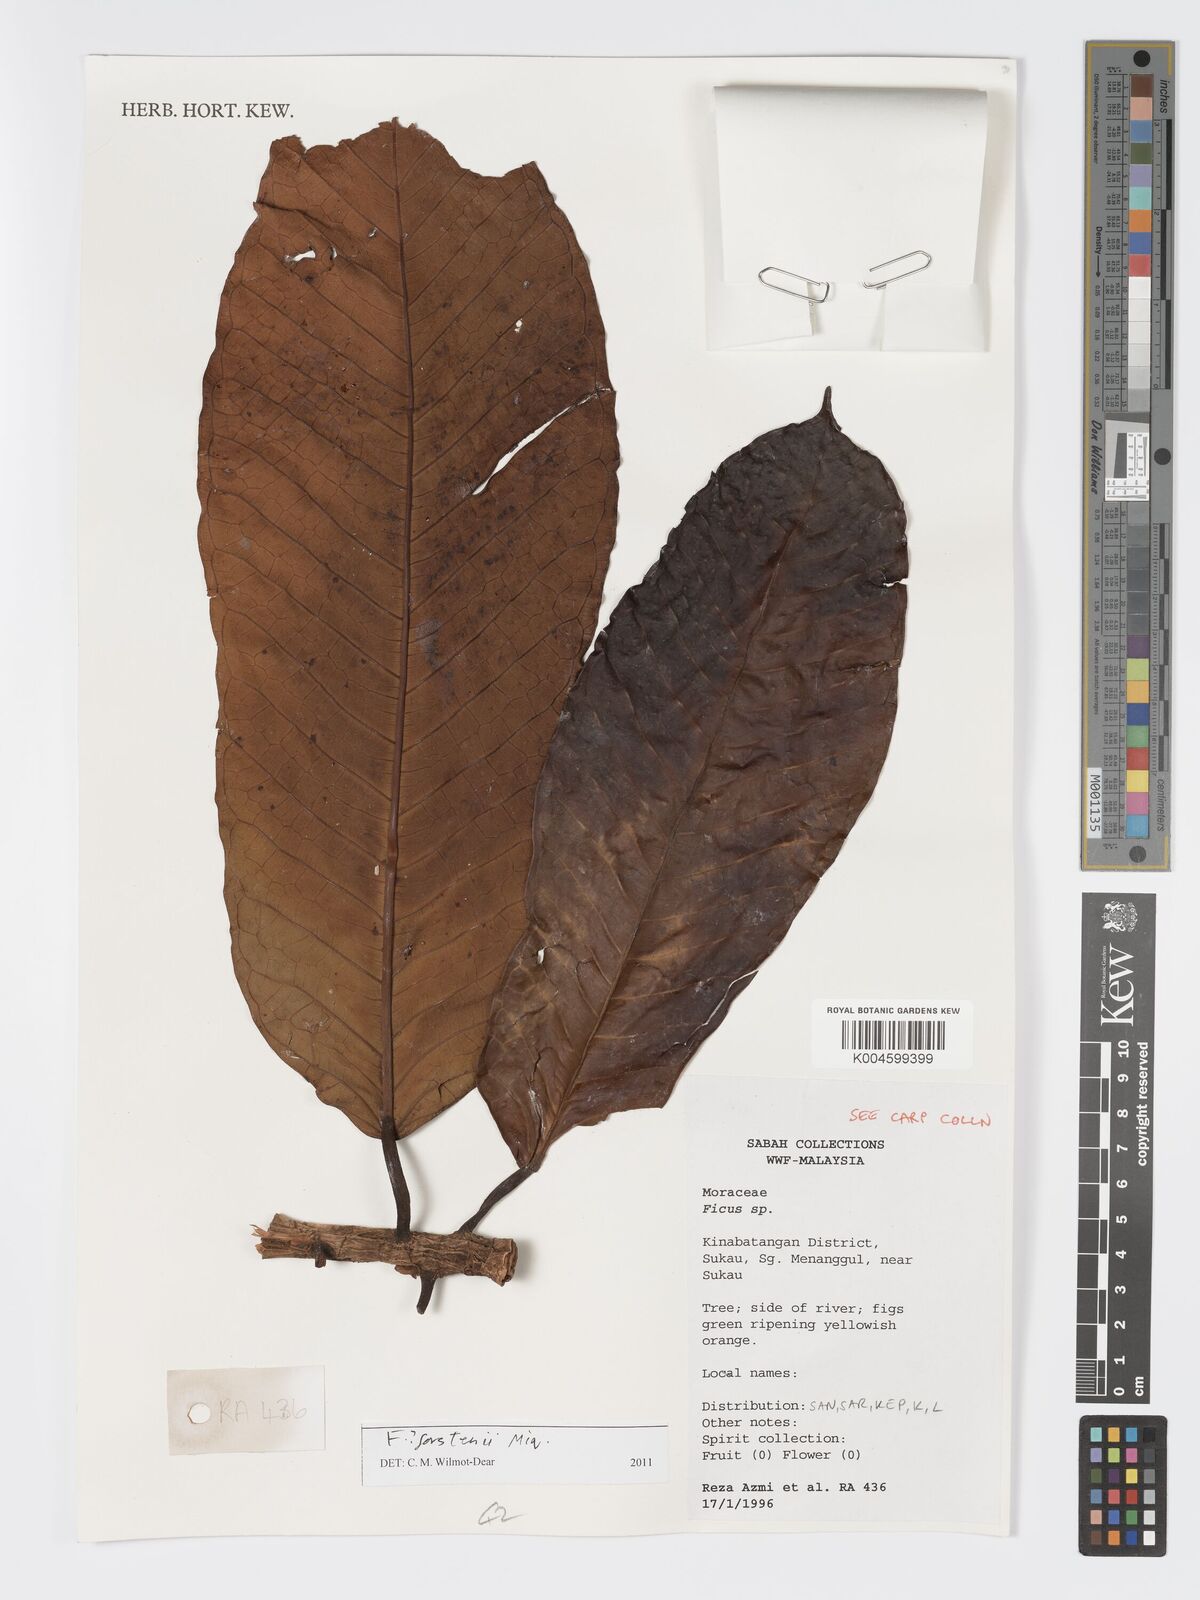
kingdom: Plantae
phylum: Tracheophyta
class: Magnoliopsida
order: Rosales
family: Moraceae
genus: Ficus
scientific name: Ficus forstenii
